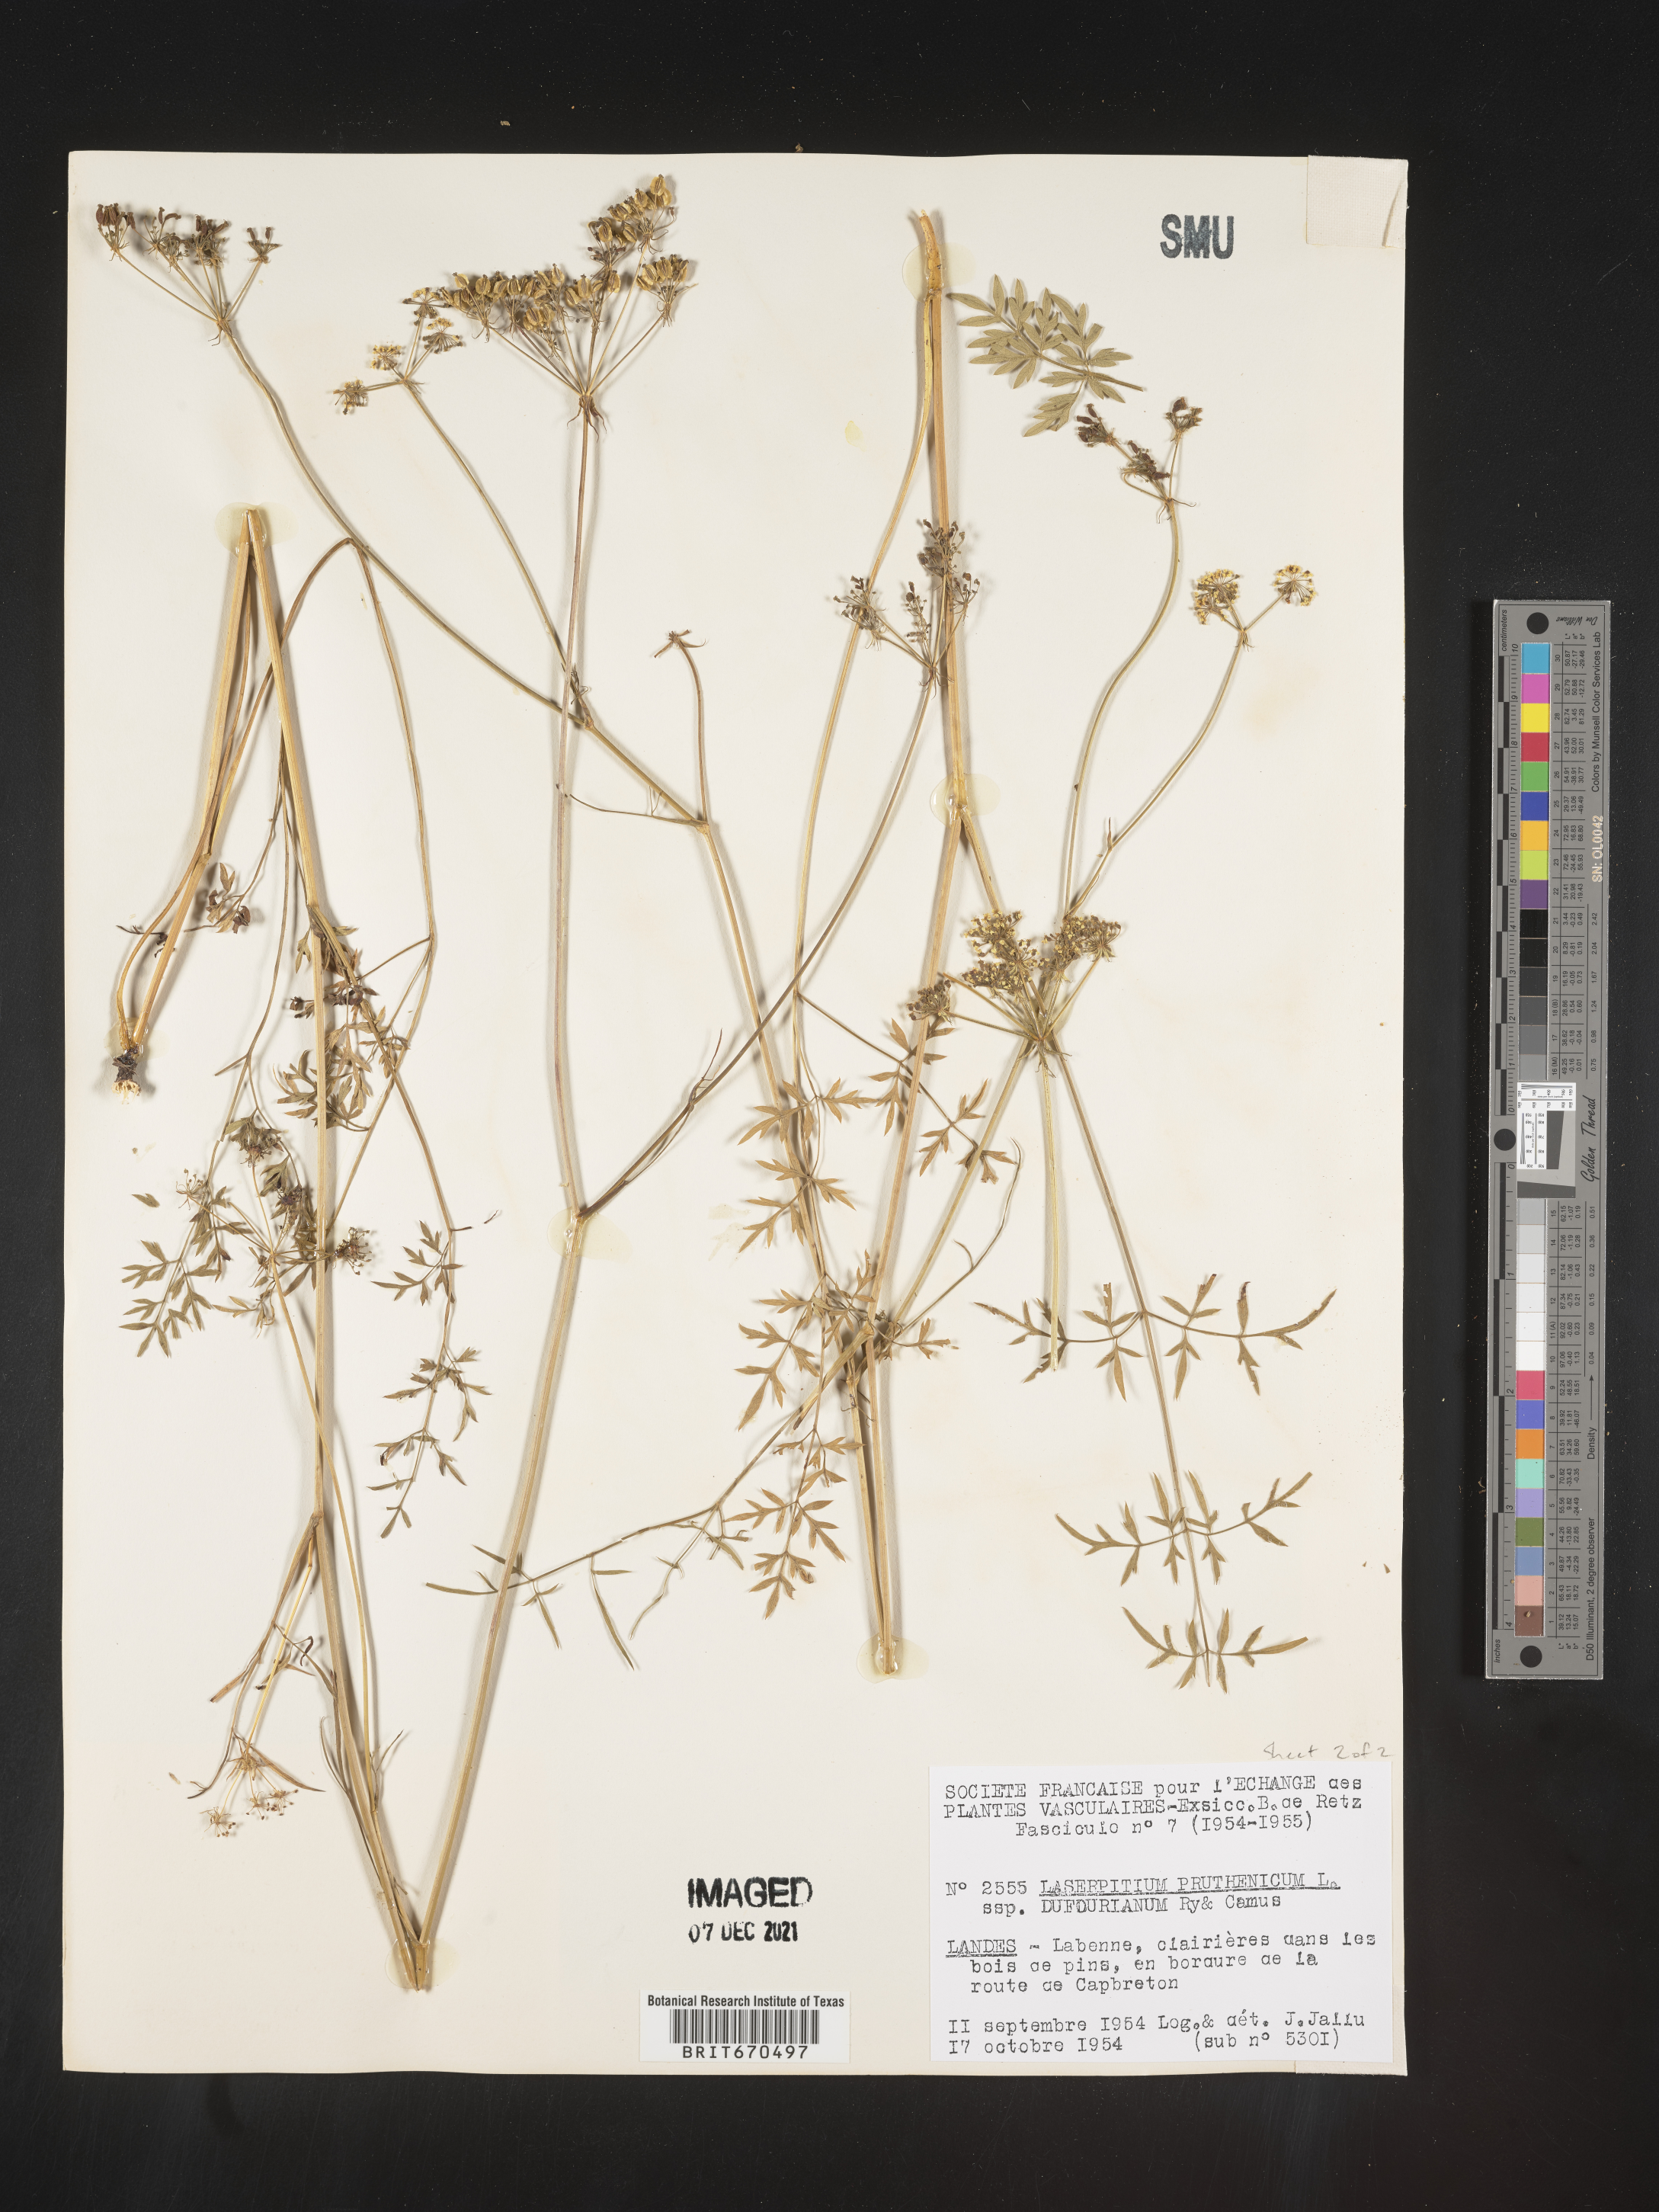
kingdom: Plantae
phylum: Tracheophyta
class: Magnoliopsida
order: Apiales
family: Apiaceae
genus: Laserpitium
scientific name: Laserpitium
